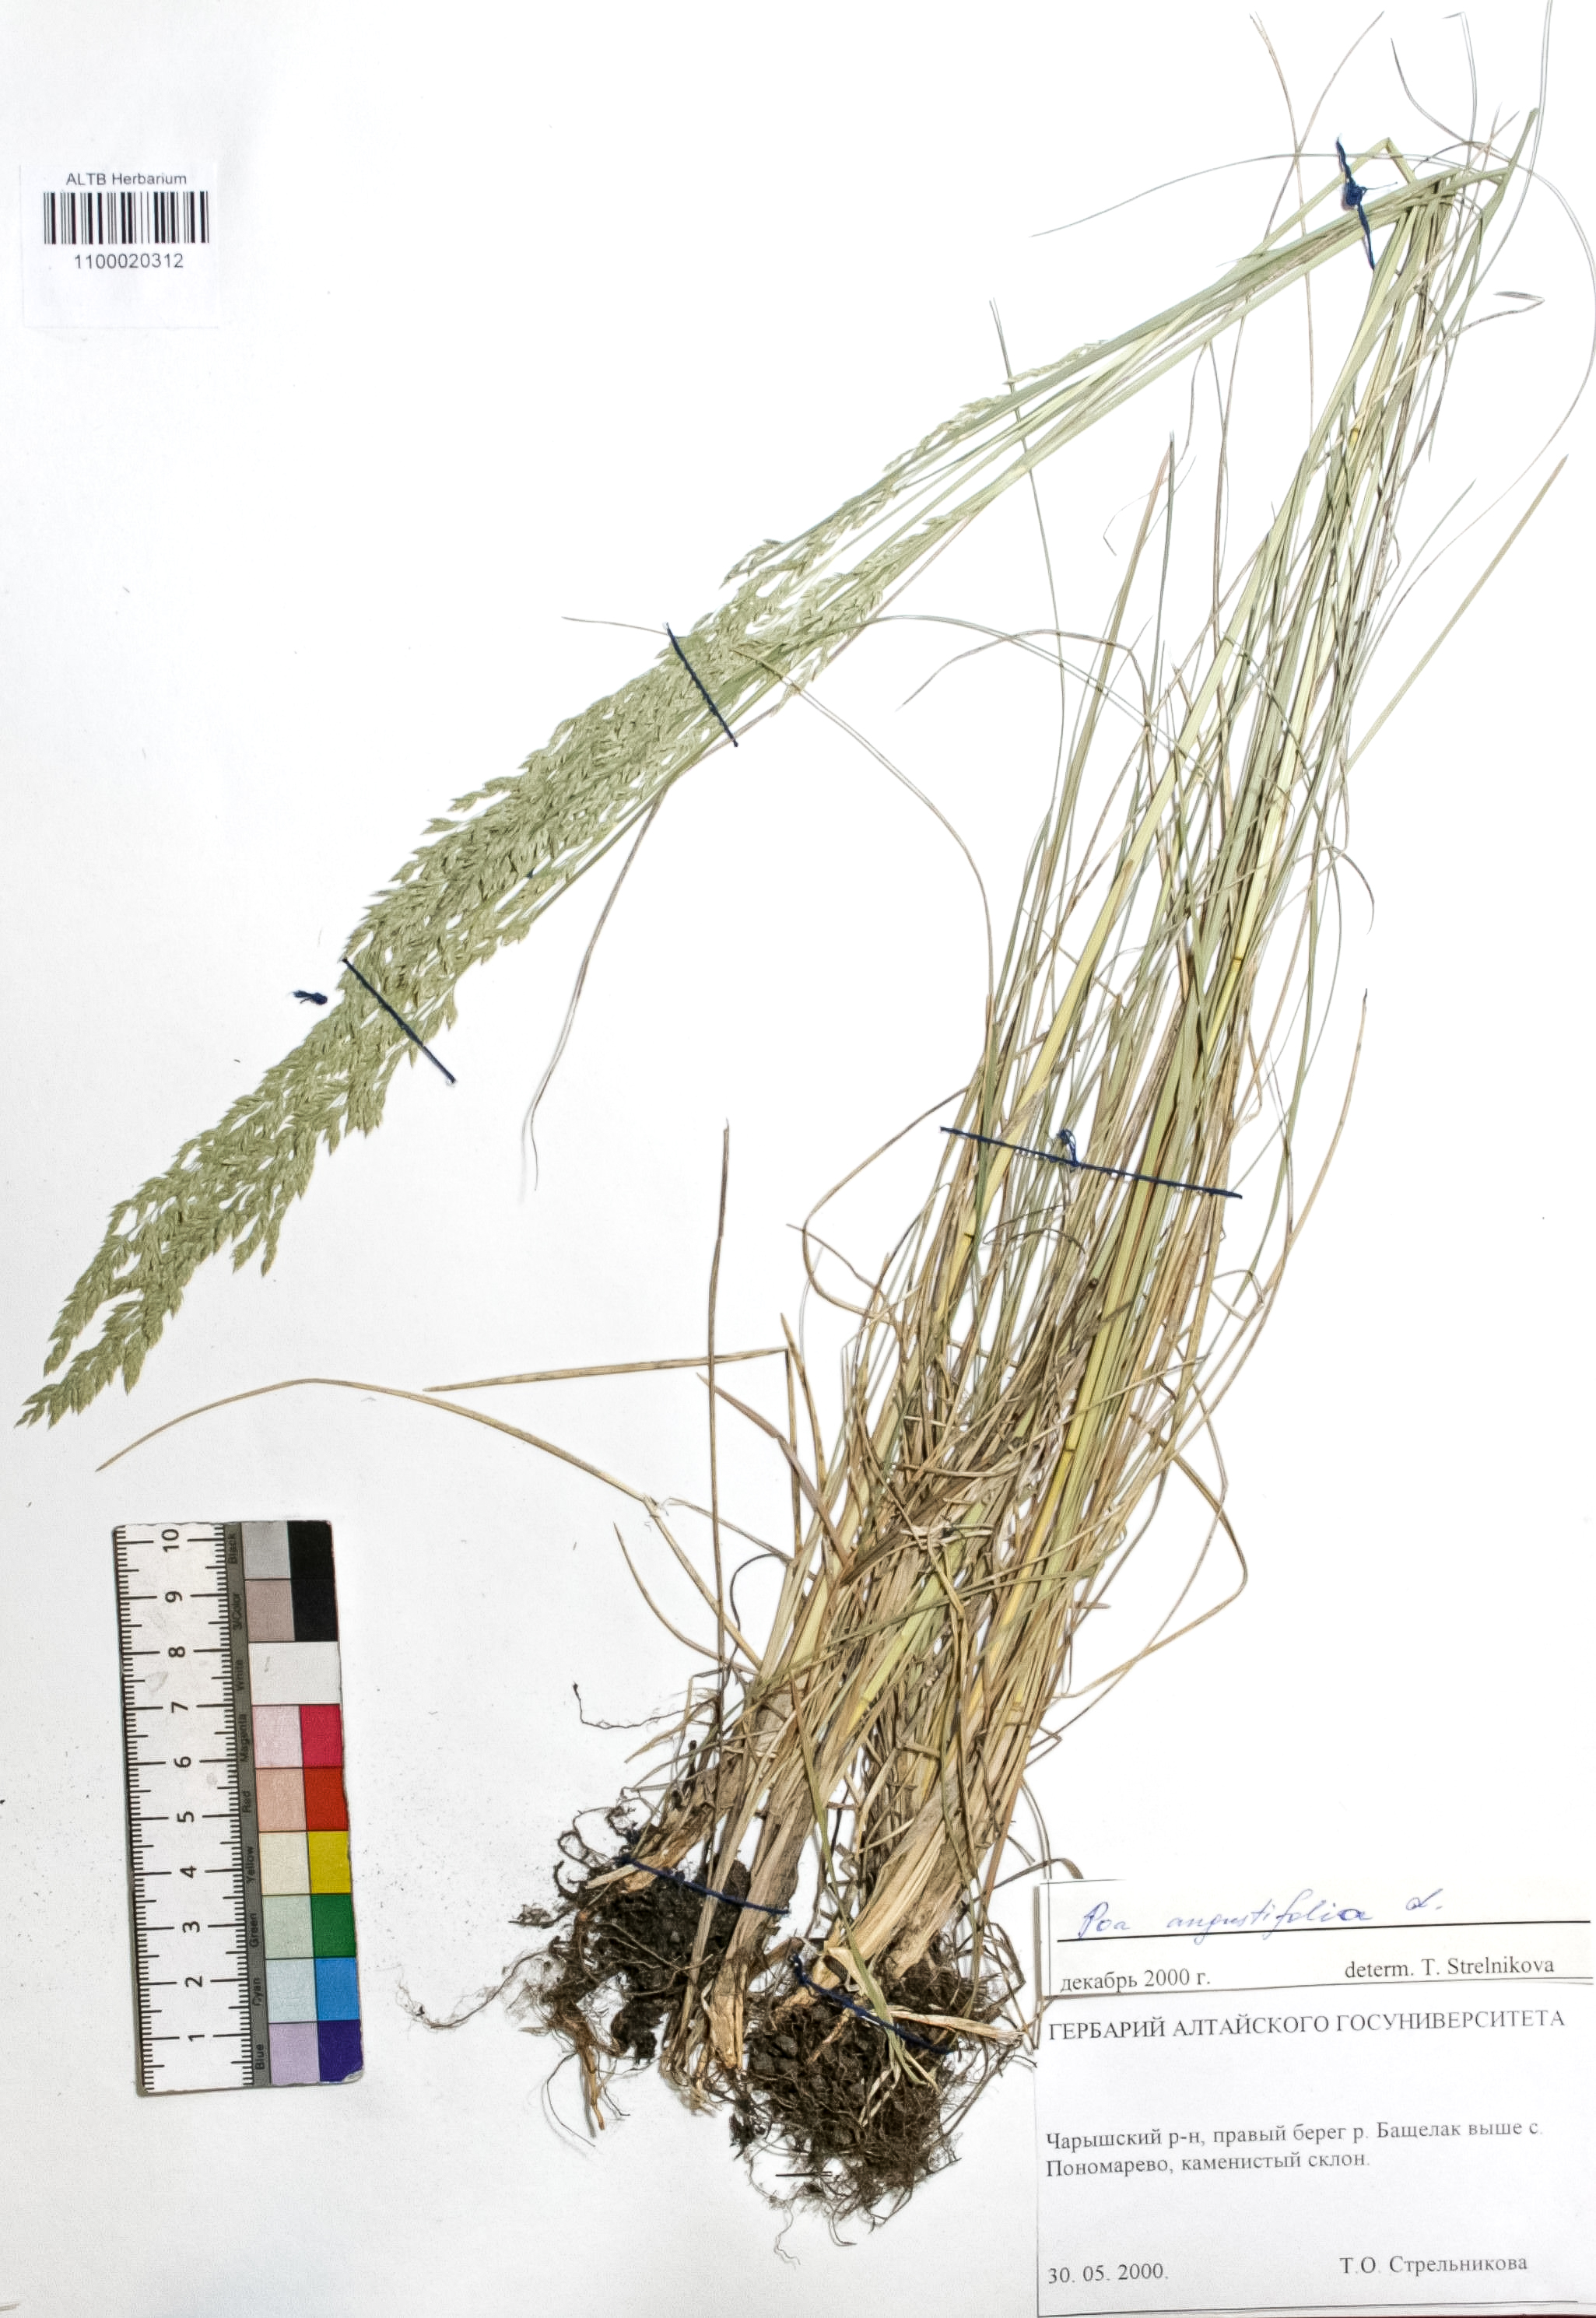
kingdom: Plantae
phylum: Tracheophyta
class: Liliopsida
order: Poales
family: Poaceae
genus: Poa
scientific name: Poa angustifolia
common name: Narrow-leaved meadow-grass
